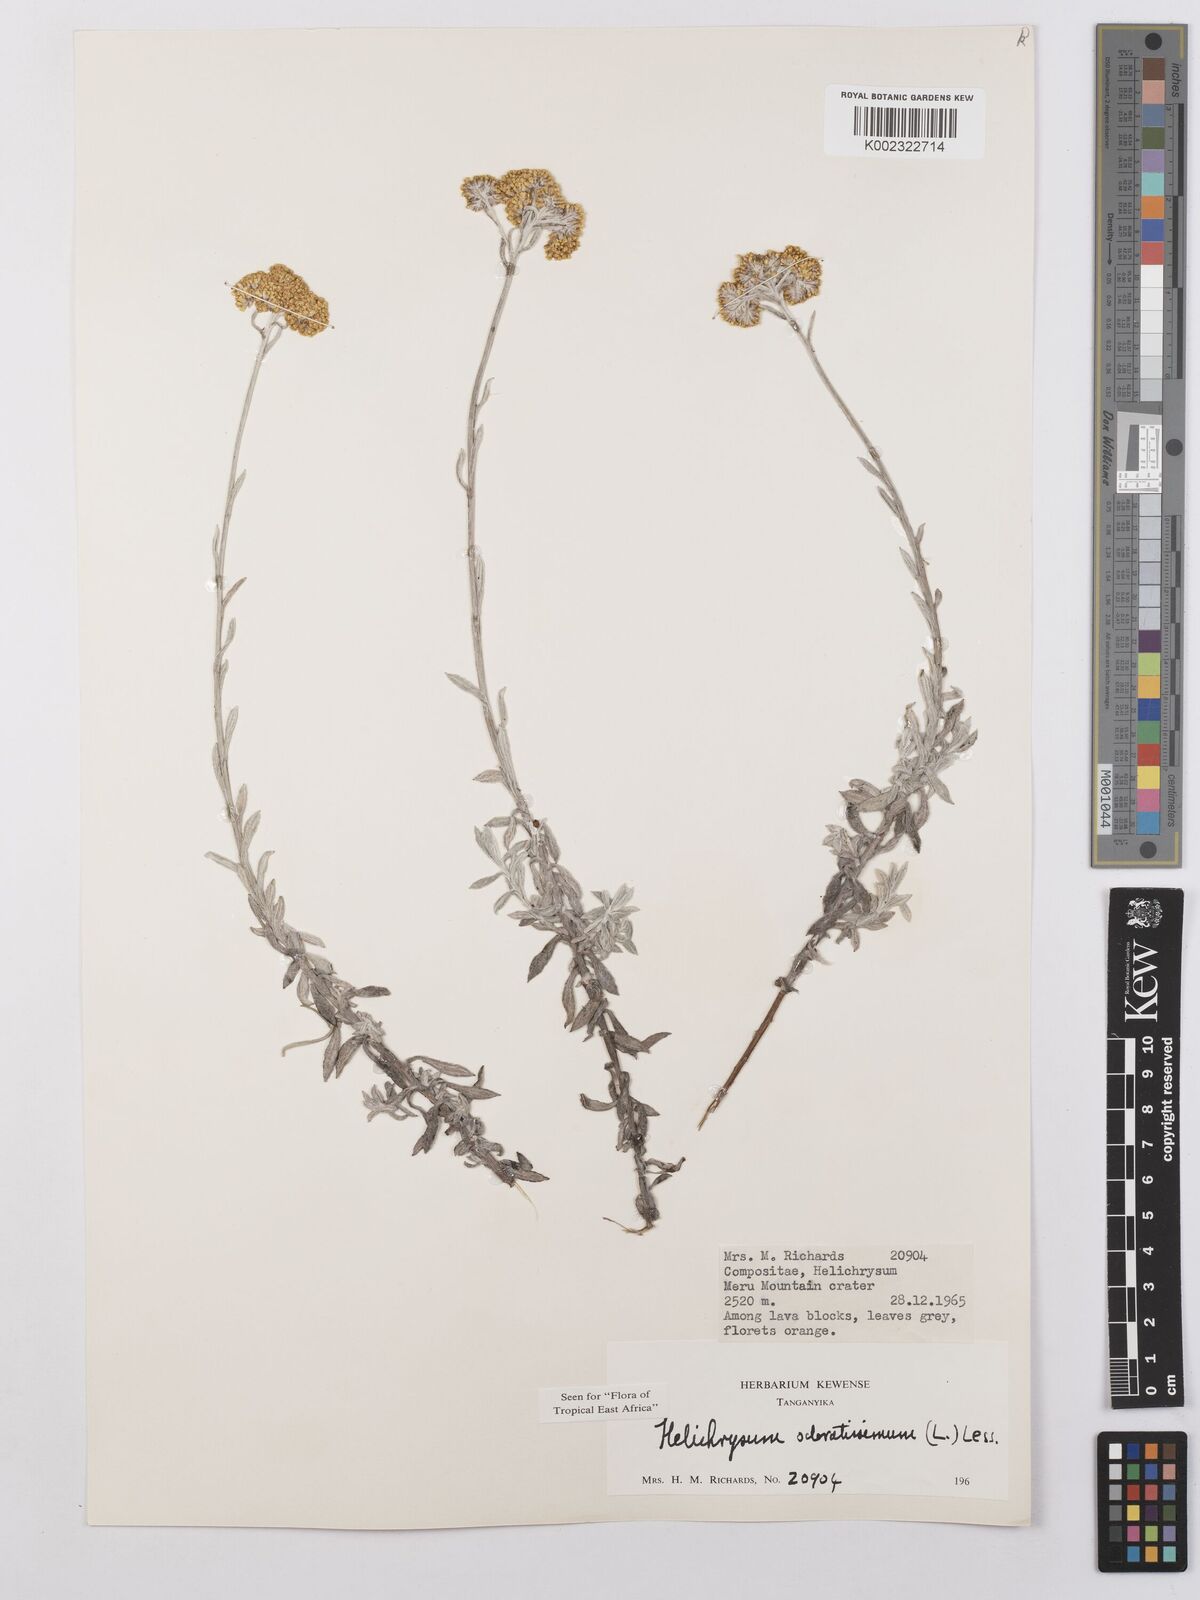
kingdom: Plantae
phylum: Tracheophyta
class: Magnoliopsida
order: Asterales
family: Asteraceae
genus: Helichrysum
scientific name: Helichrysum odoratissimum
